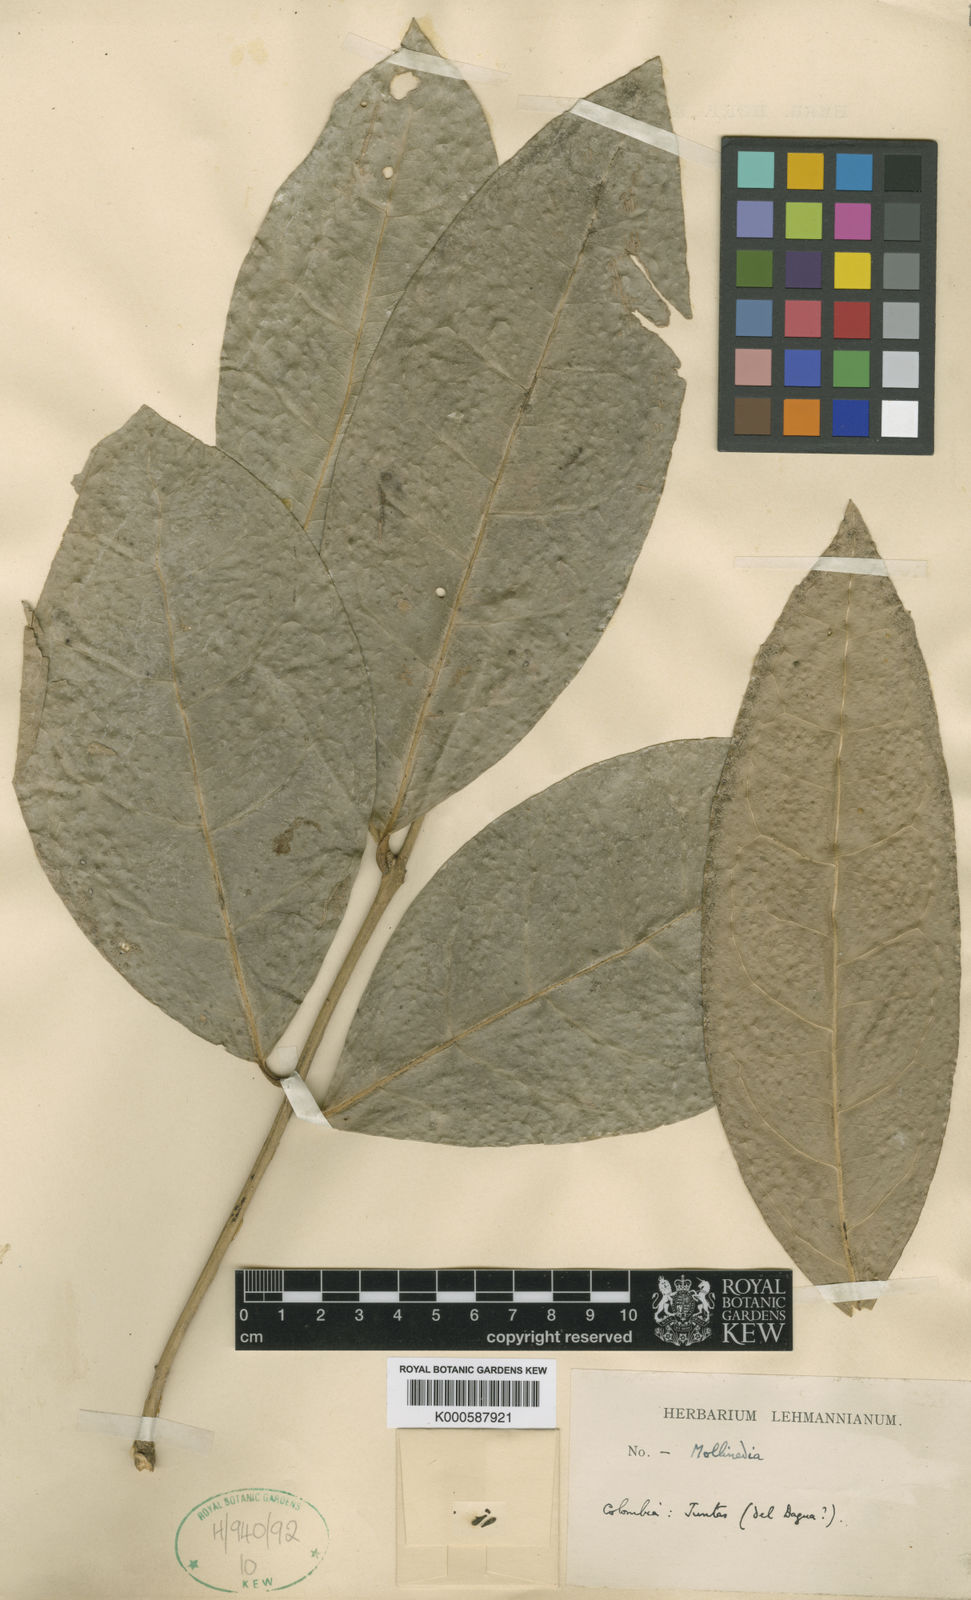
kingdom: Plantae
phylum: Tracheophyta
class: Magnoliopsida
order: Laurales
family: Monimiaceae
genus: Mollinedia
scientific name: Mollinedia ovata
